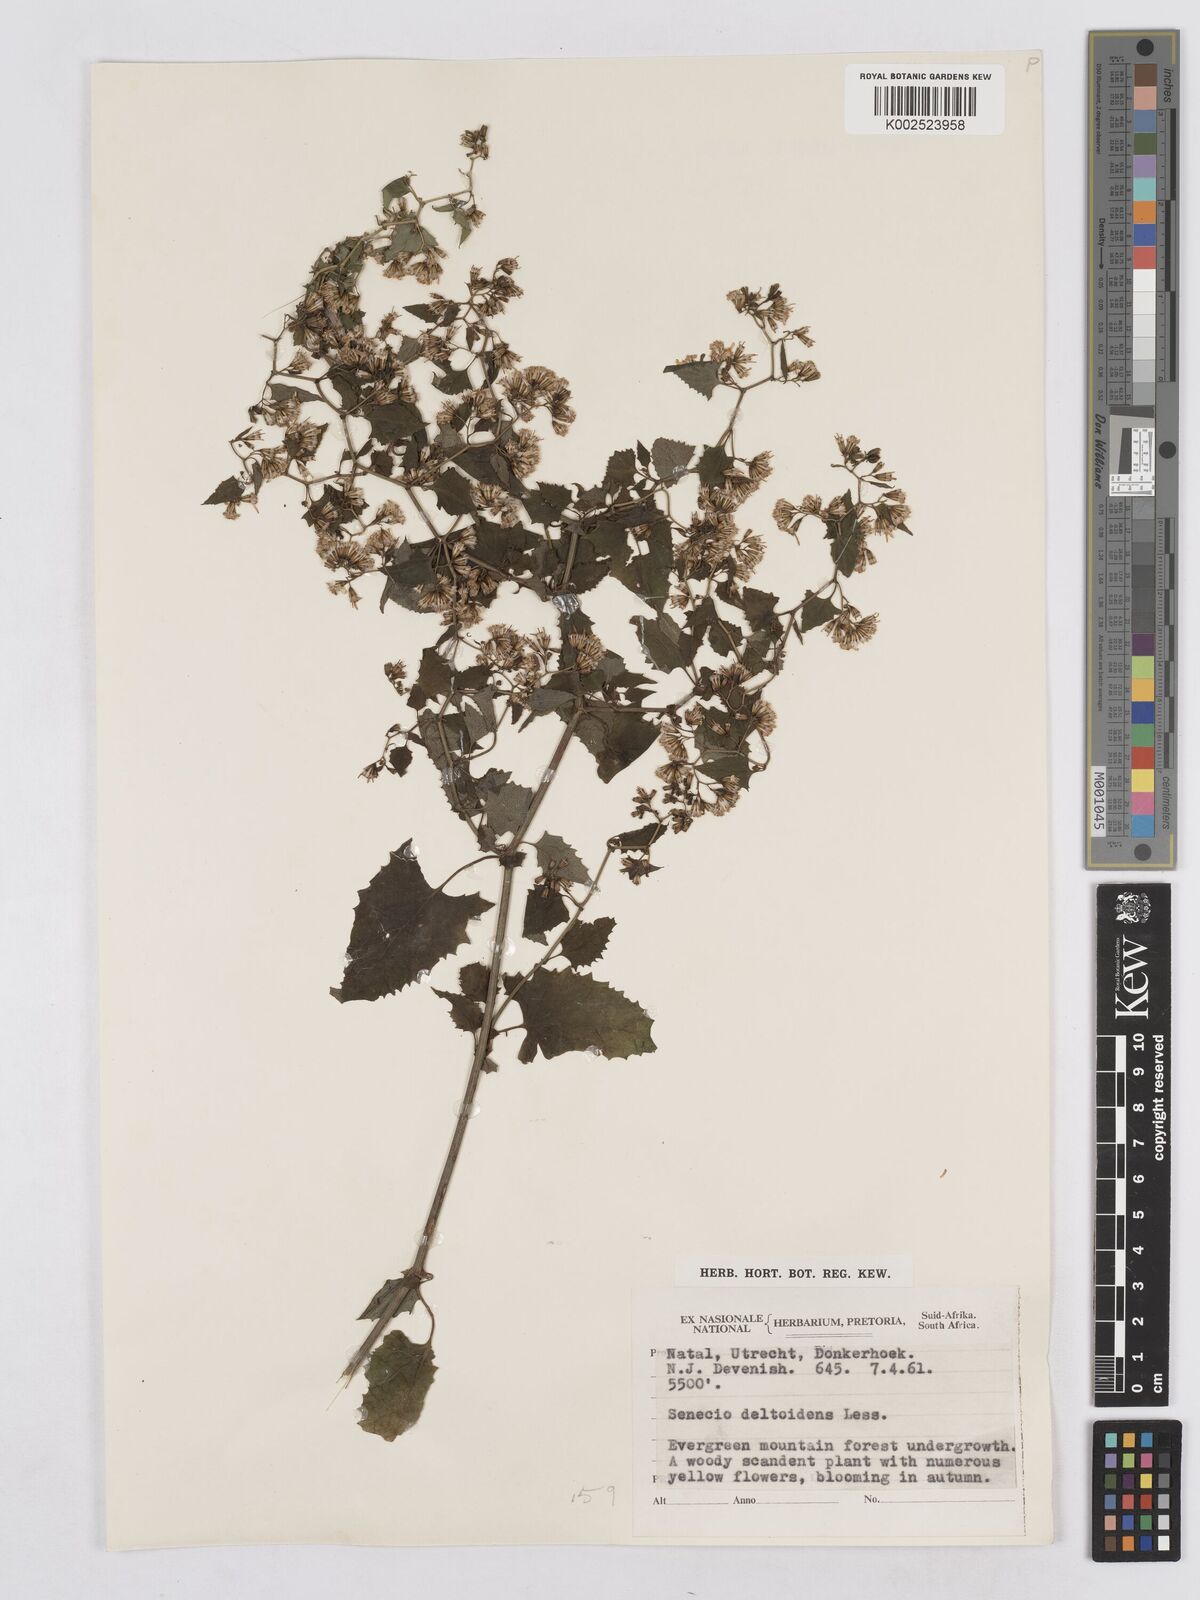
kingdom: Plantae
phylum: Tracheophyta
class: Magnoliopsida
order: Asterales
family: Asteraceae
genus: Senecio
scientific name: Senecio deltoideus
